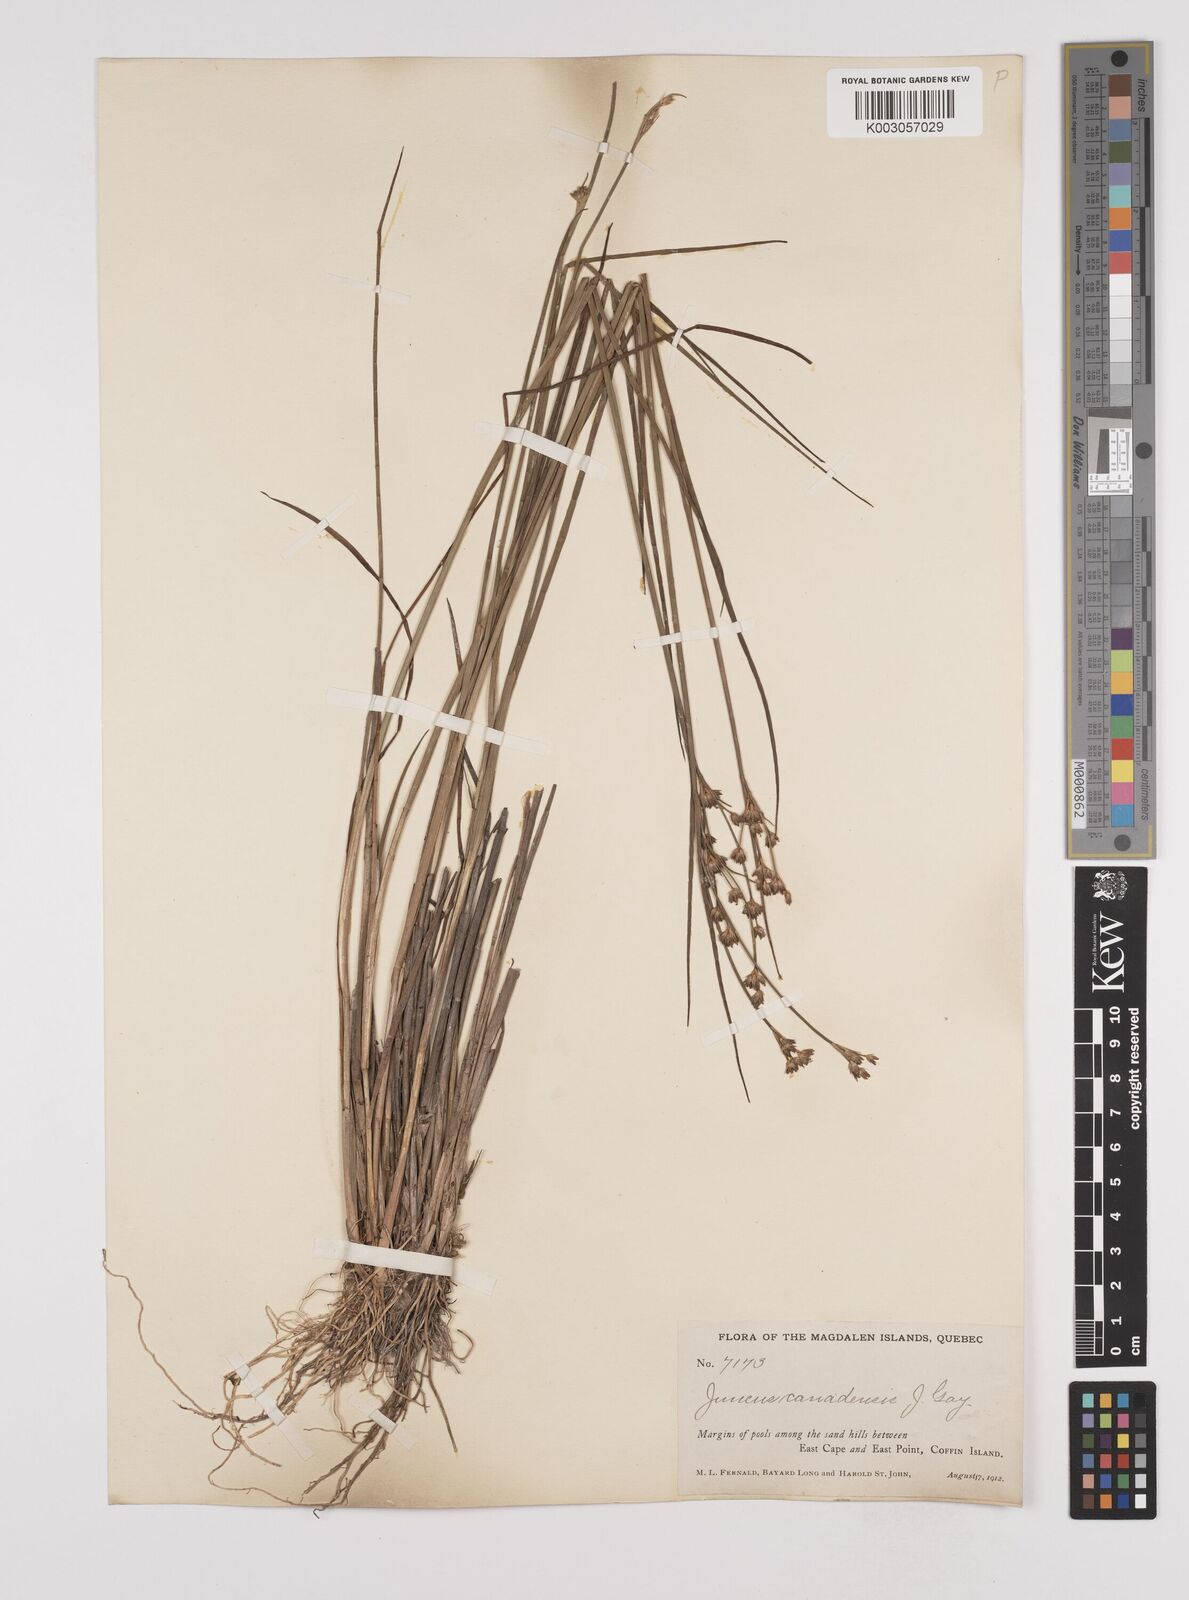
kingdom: Plantae
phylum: Tracheophyta
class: Liliopsida
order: Poales
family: Juncaceae
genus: Juncus
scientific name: Juncus canadensis
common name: Canada rush
